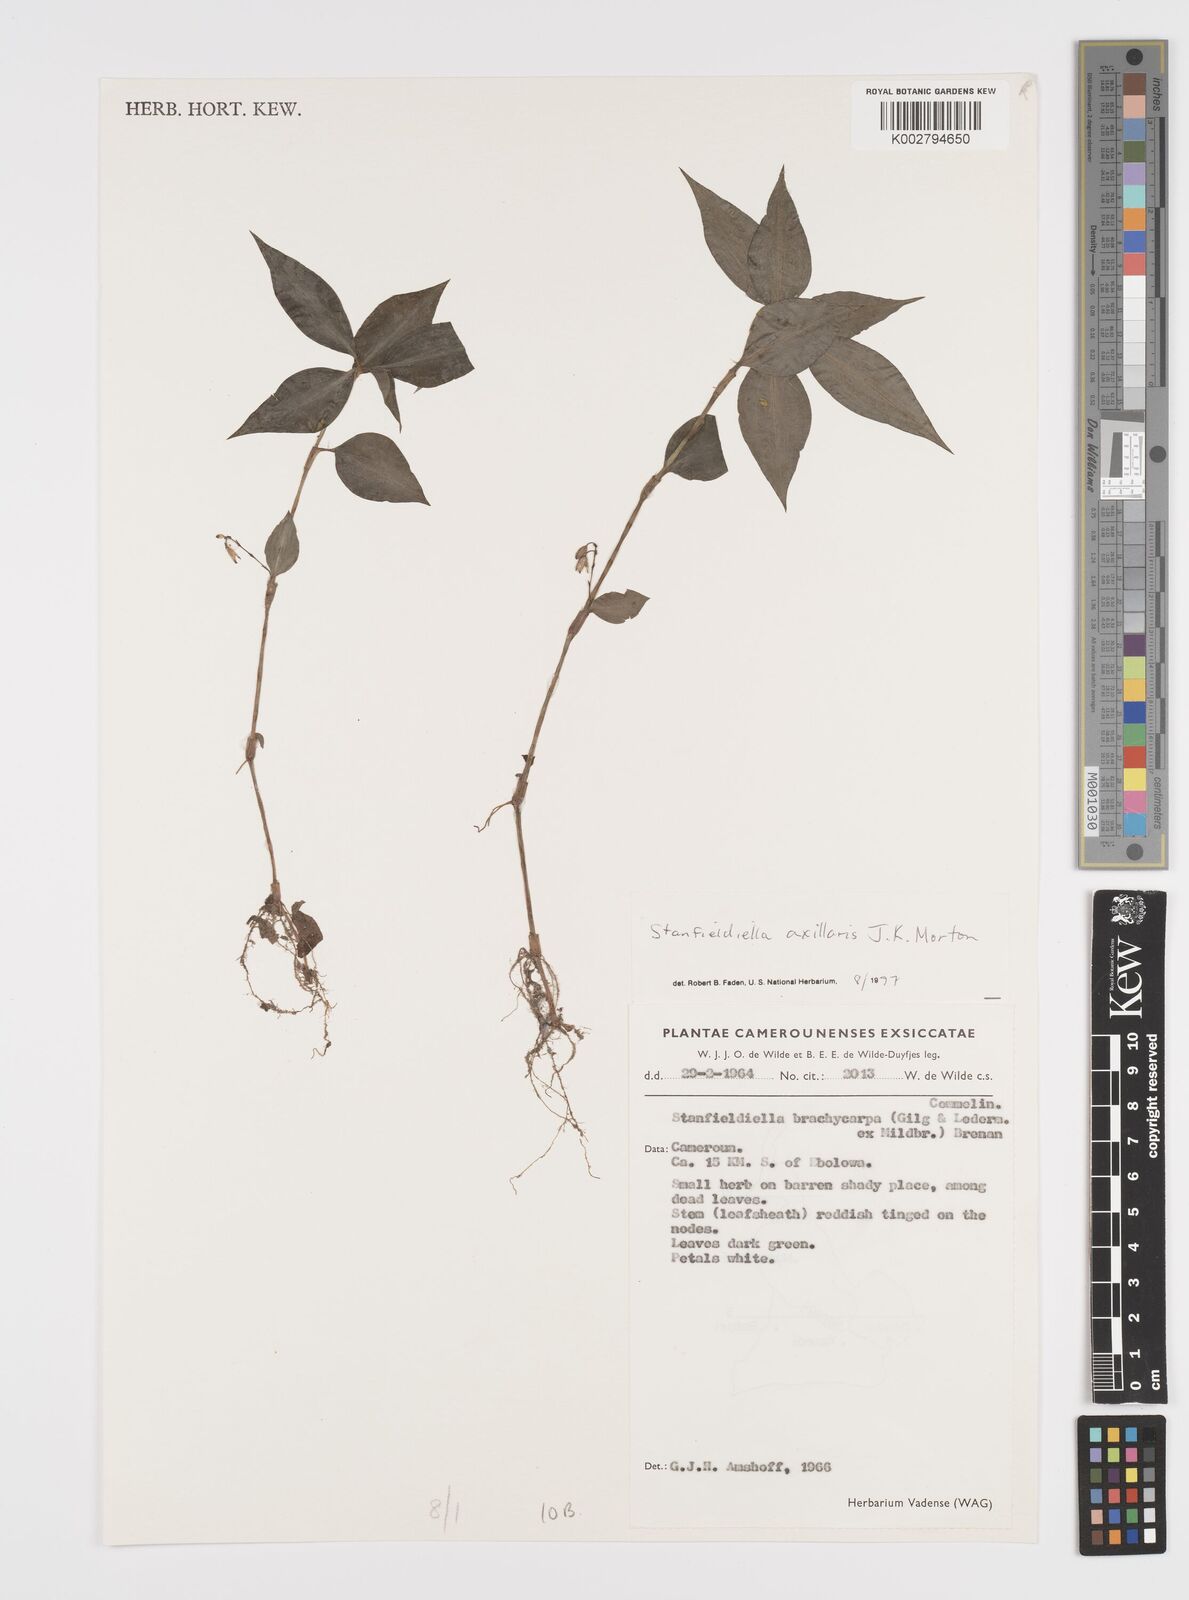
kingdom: Plantae
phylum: Tracheophyta
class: Liliopsida
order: Commelinales
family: Commelinaceae
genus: Stanfieldiella
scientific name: Stanfieldiella axillaris
